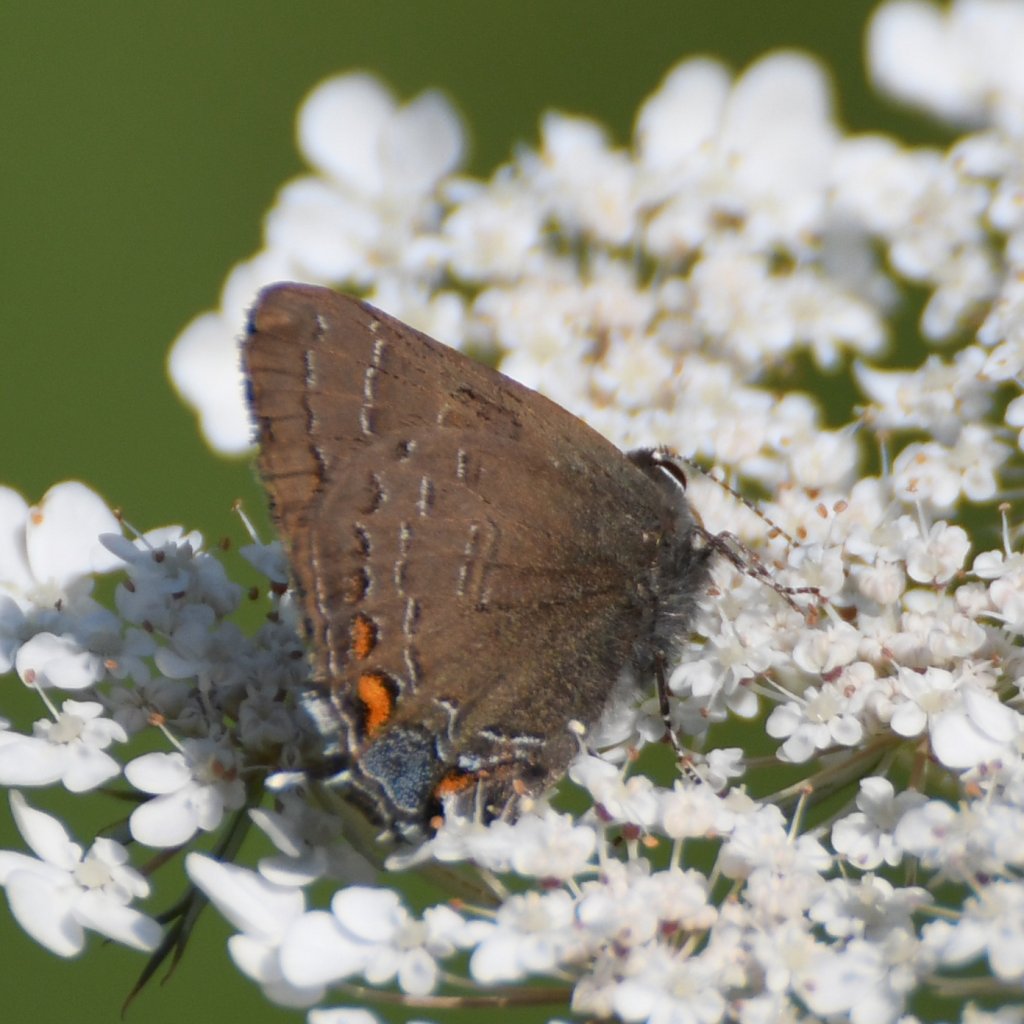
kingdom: Animalia
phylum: Arthropoda
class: Insecta
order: Lepidoptera
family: Lycaenidae
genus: Satyrium
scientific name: Satyrium calanus
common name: Banded Hairstreak
